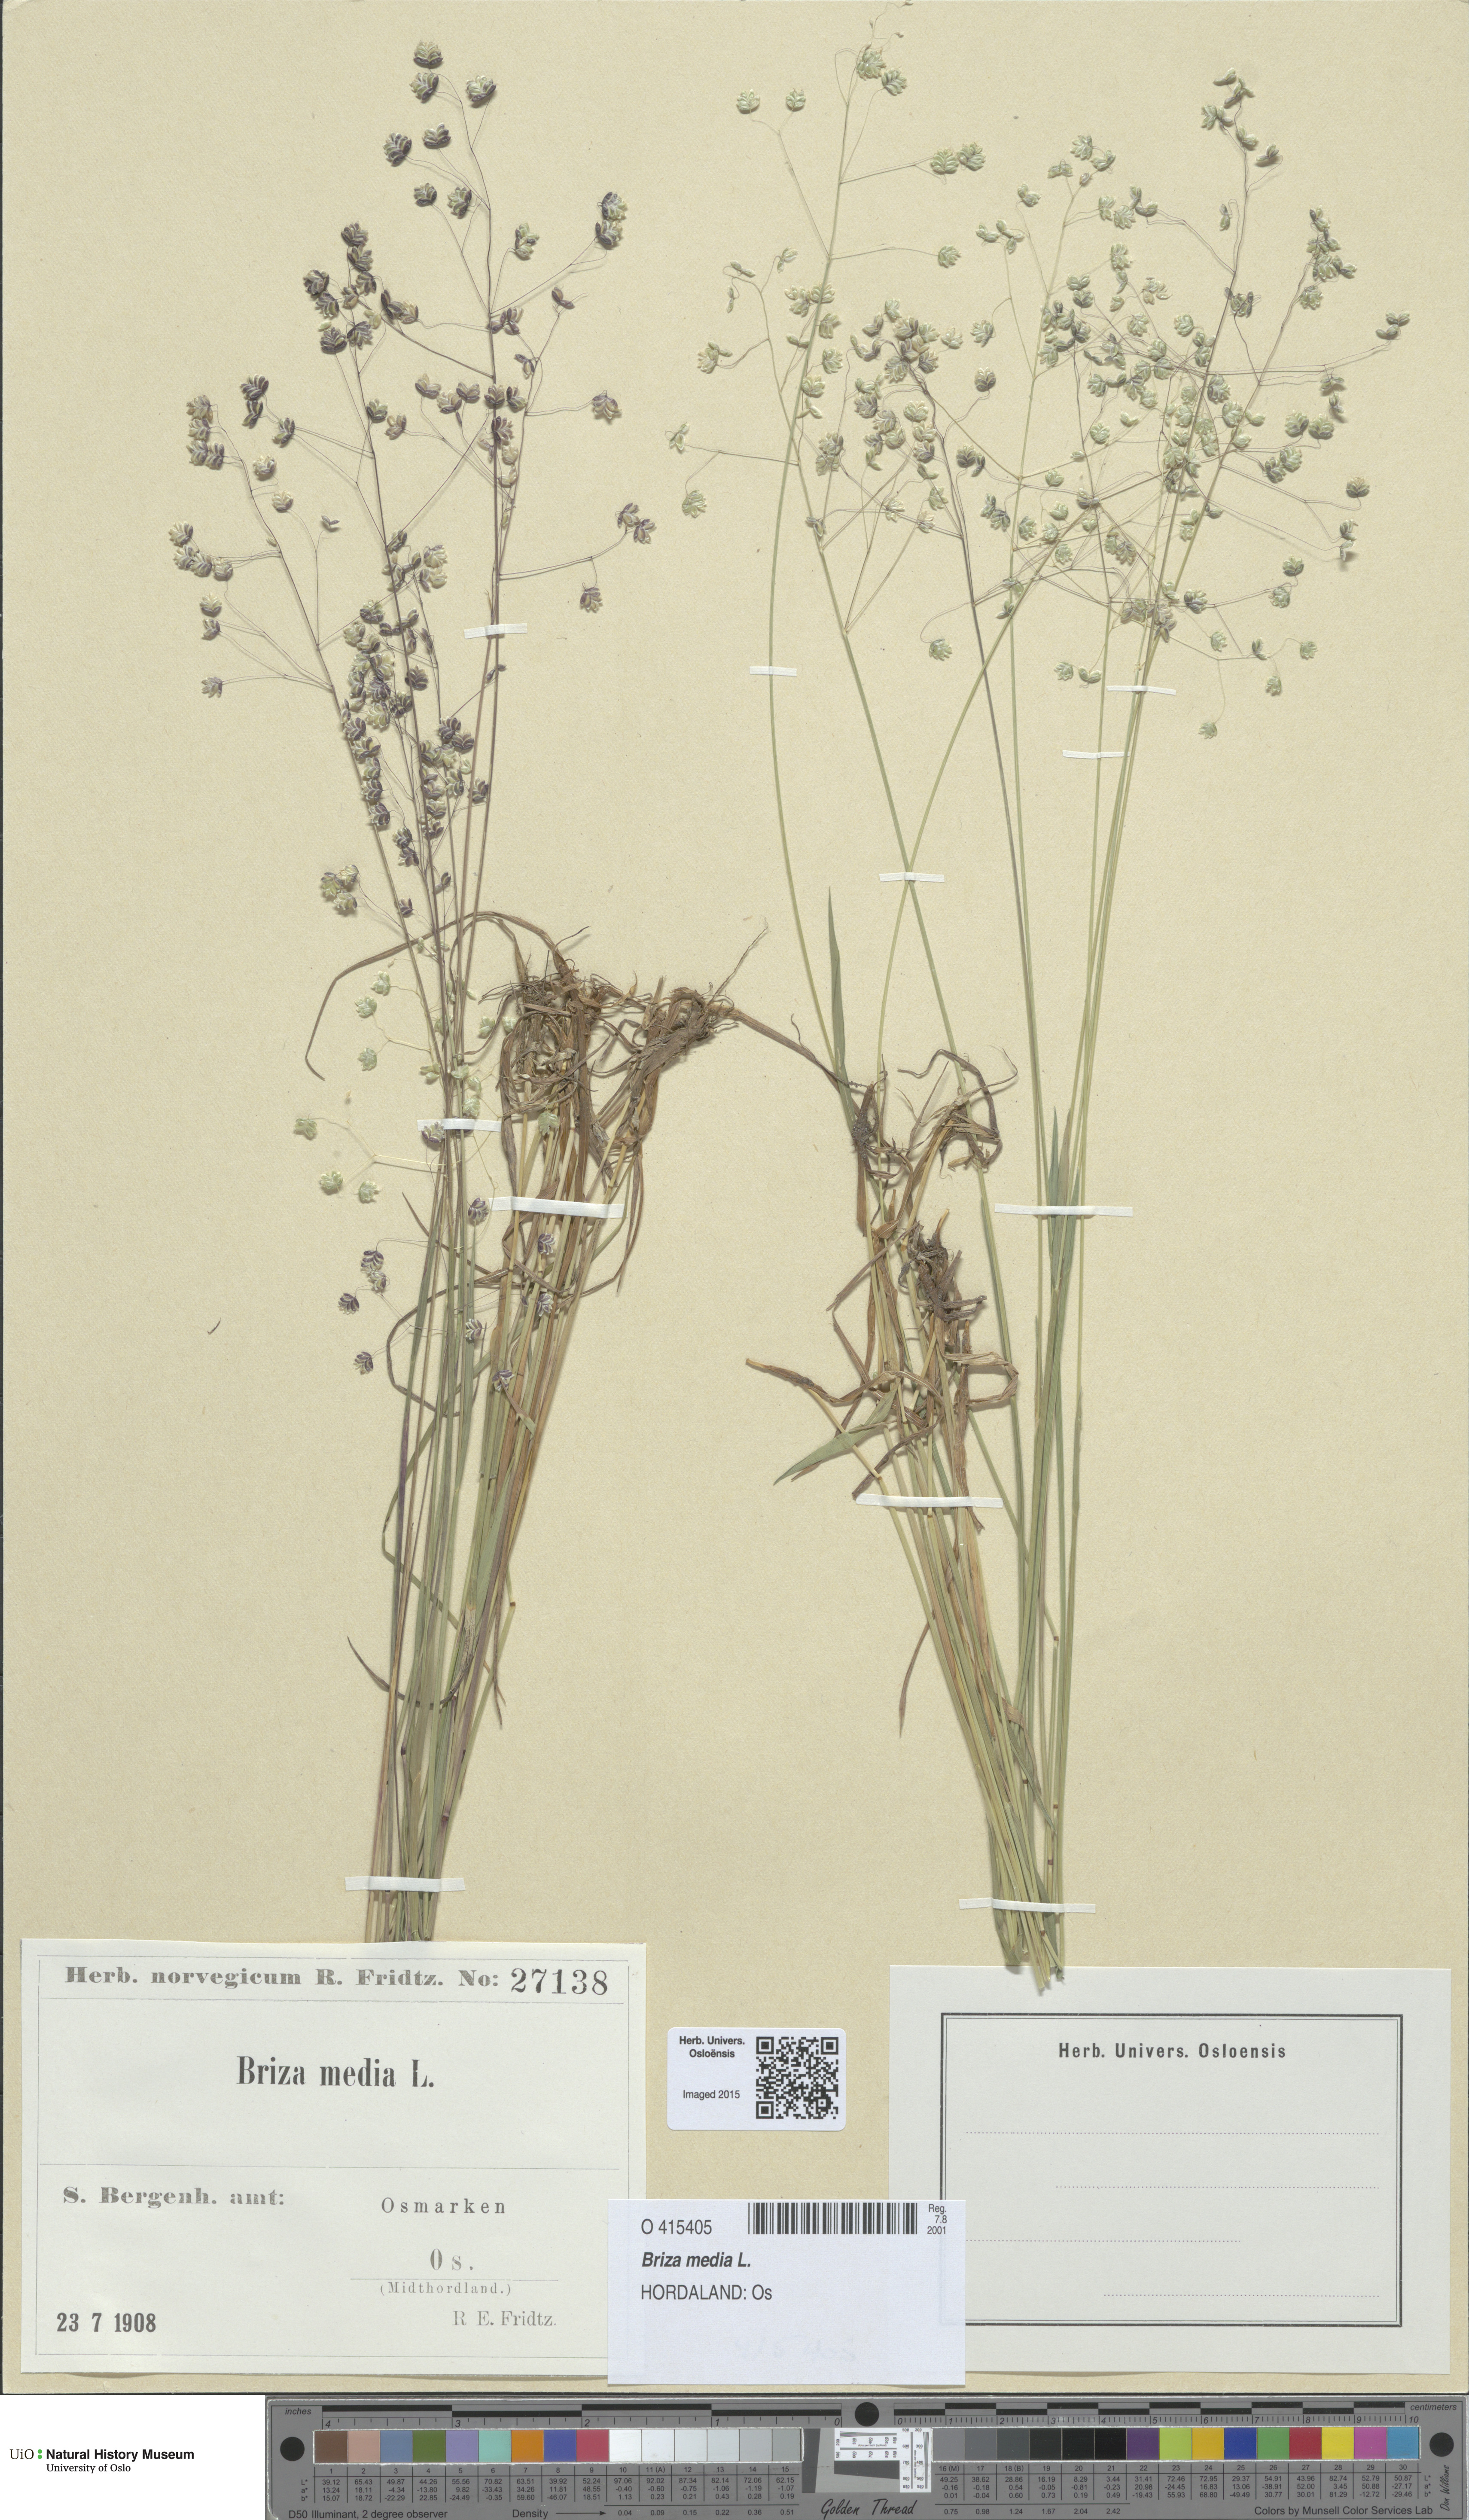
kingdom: Plantae
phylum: Tracheophyta
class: Liliopsida
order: Poales
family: Poaceae
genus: Briza
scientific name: Briza media
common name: Quaking grass
